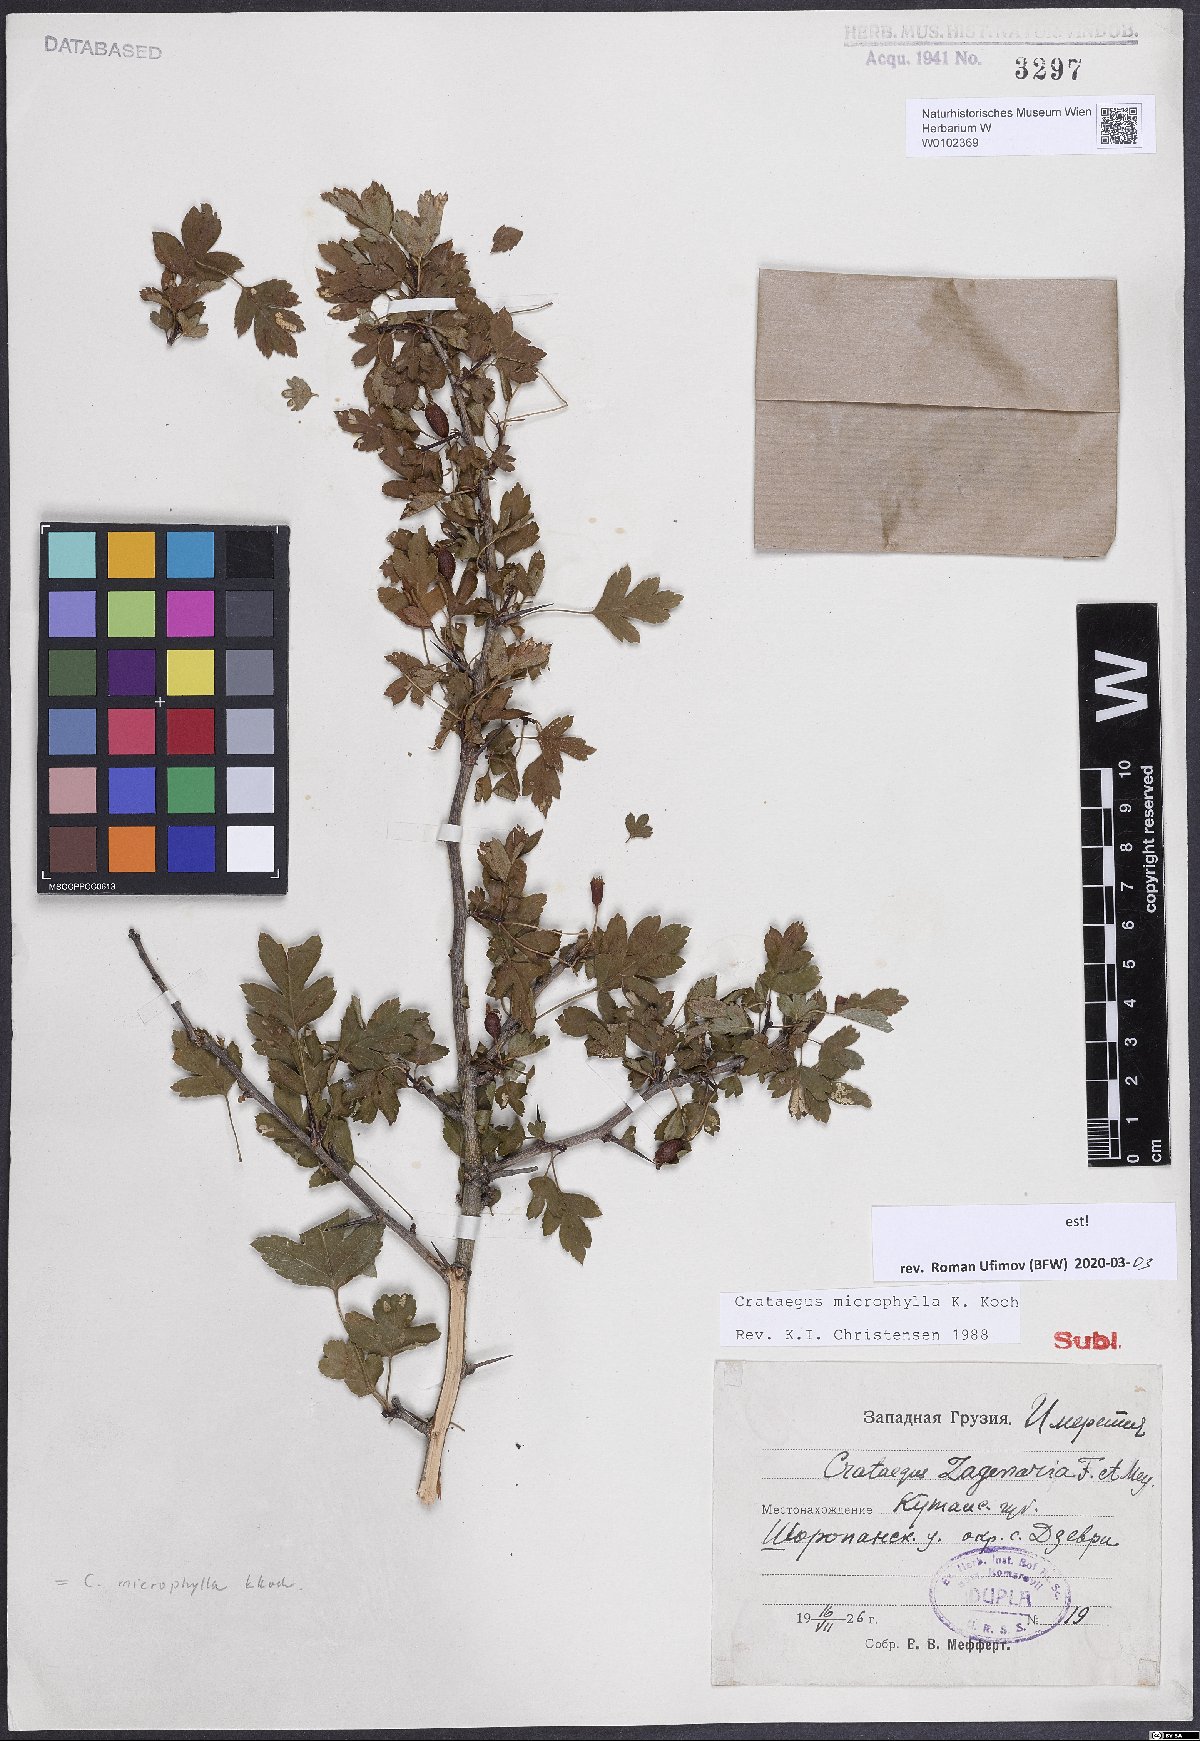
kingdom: Plantae
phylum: Tracheophyta
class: Magnoliopsida
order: Rosales
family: Rosaceae
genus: Crataegus
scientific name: Crataegus microphylla
